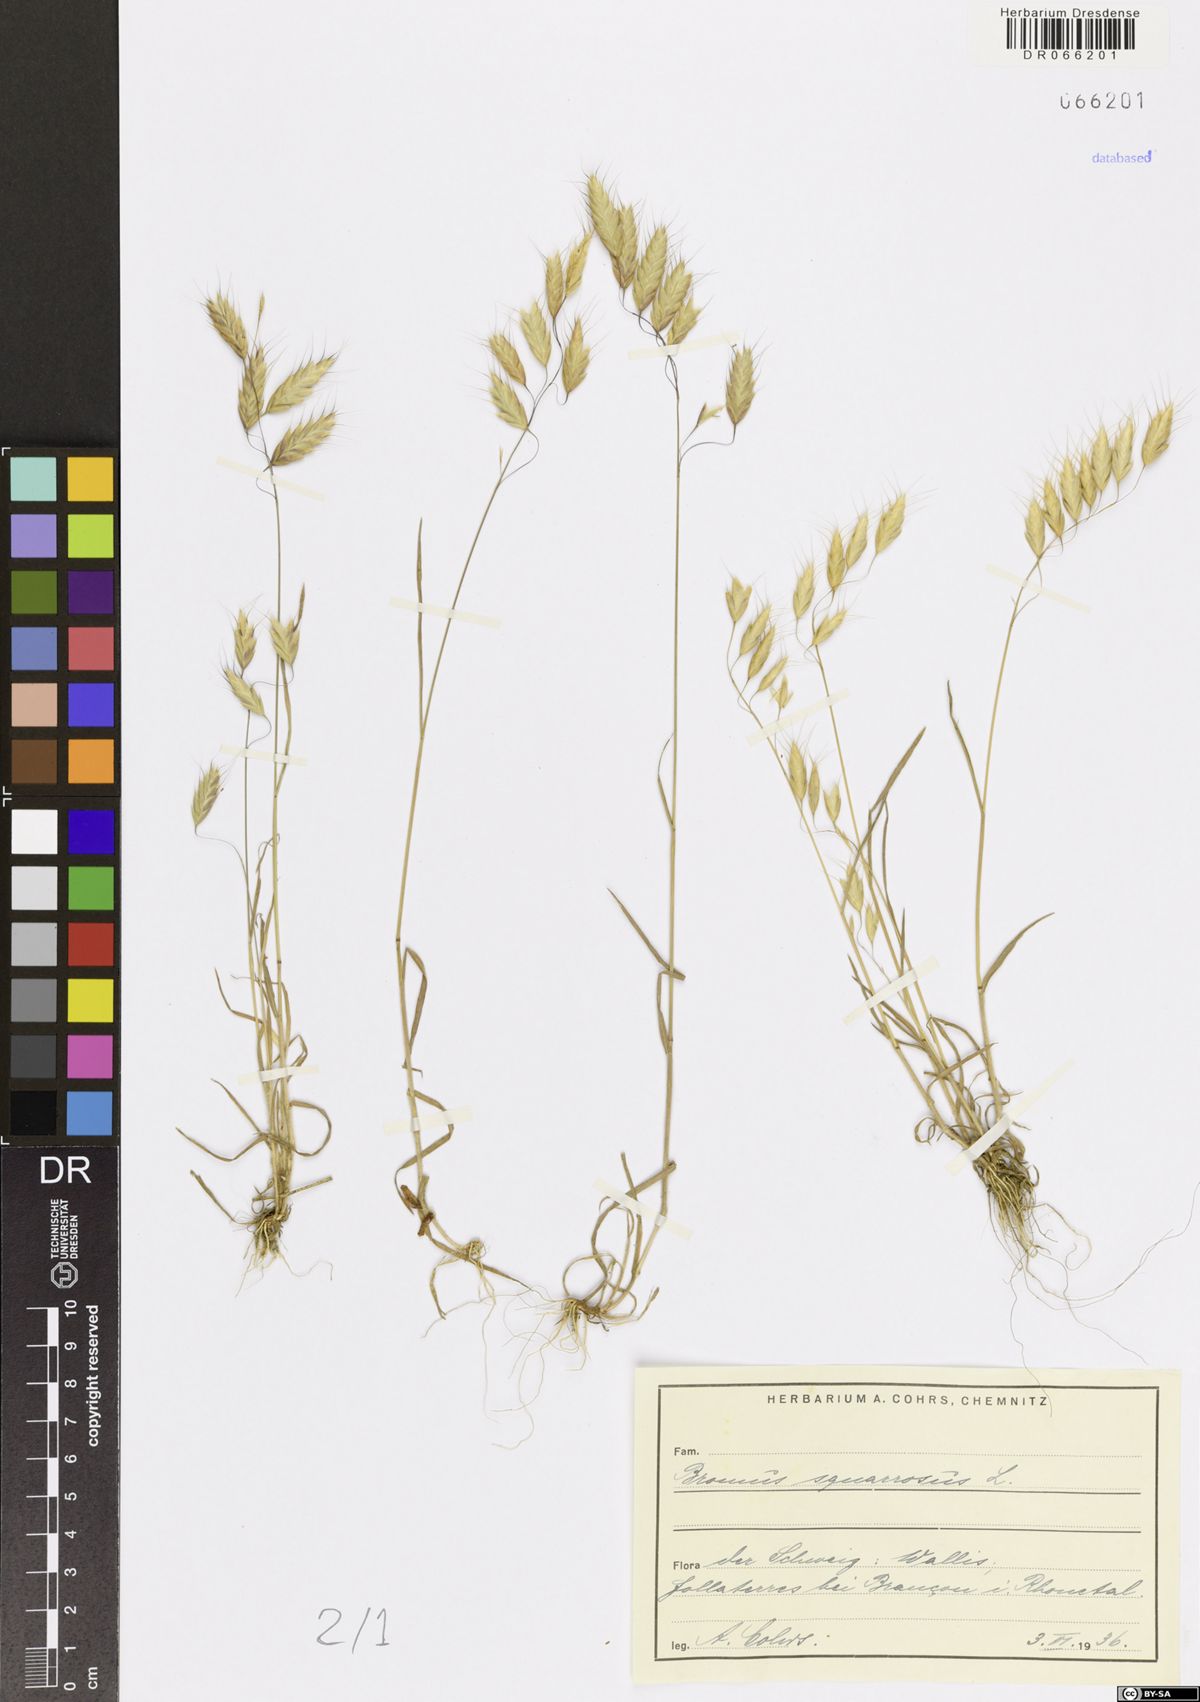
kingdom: Plantae
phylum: Tracheophyta
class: Liliopsida
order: Poales
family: Poaceae
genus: Bromus
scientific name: Bromus squarrosus
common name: Corn brome
